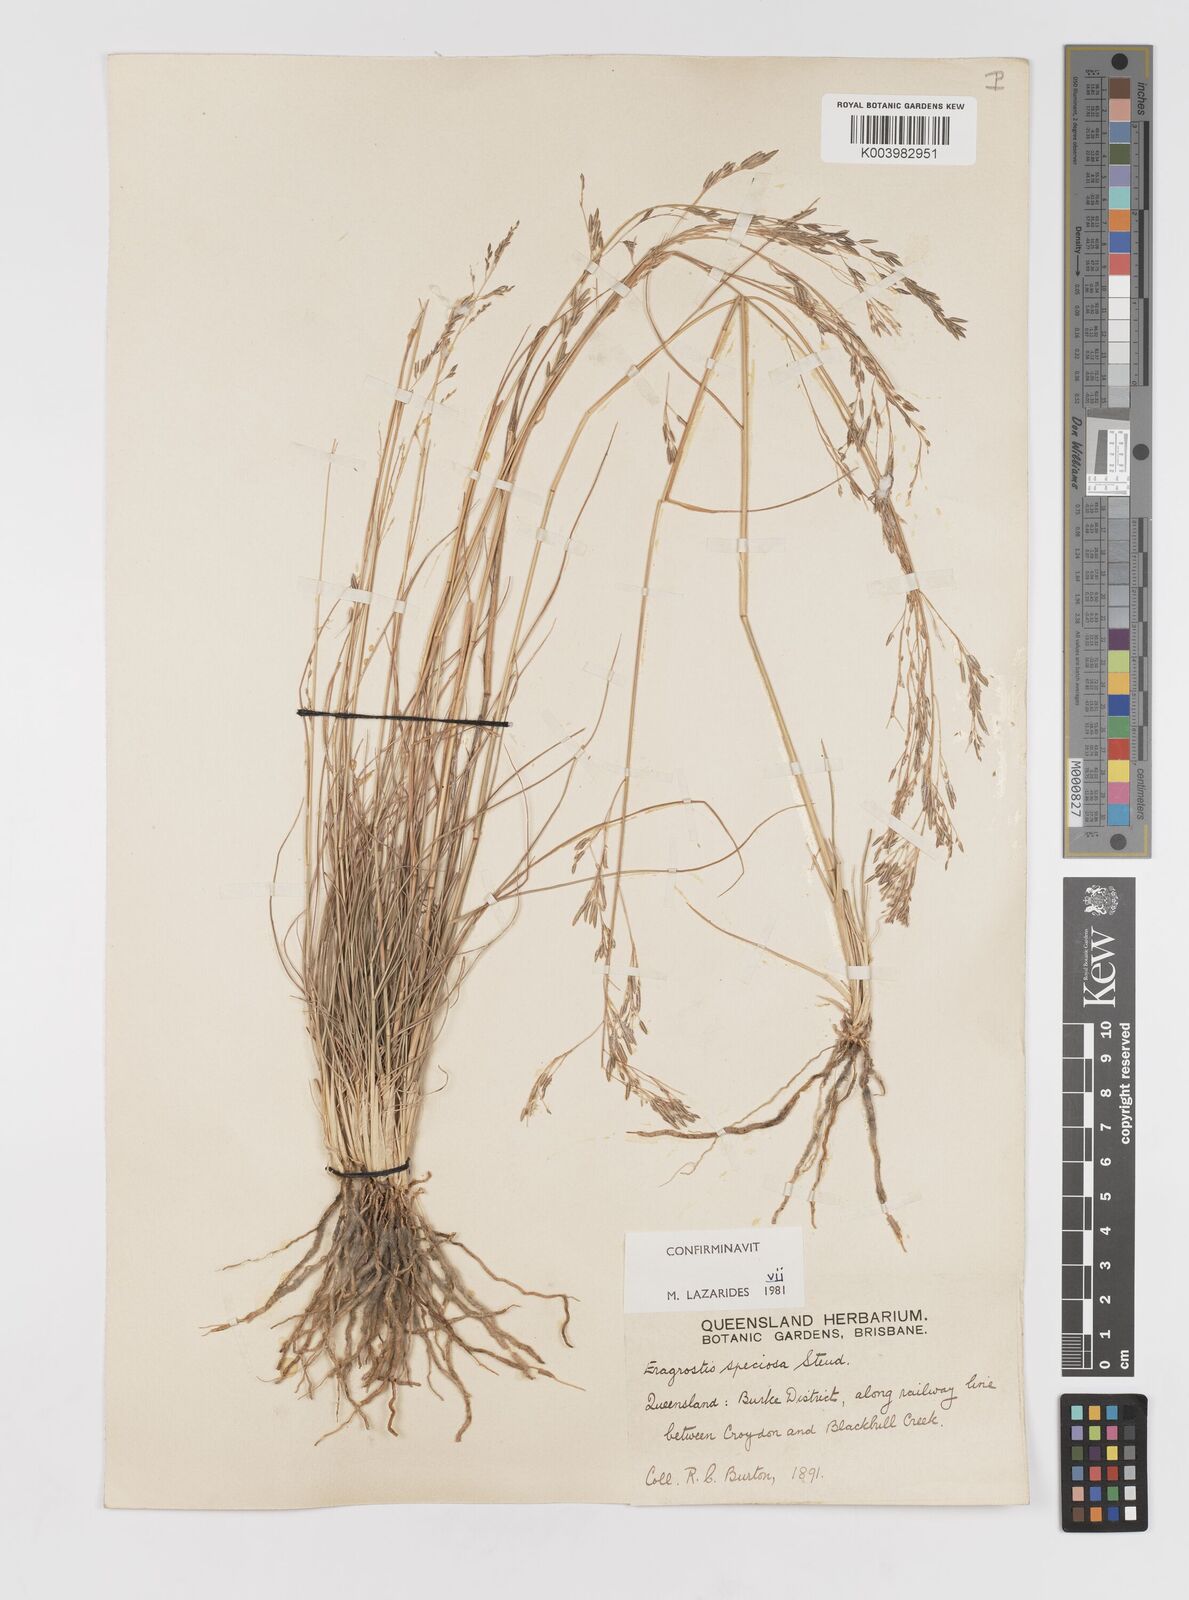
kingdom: Plantae
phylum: Tracheophyta
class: Liliopsida
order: Poales
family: Poaceae
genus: Eragrostis
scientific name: Eragrostis speciosa
